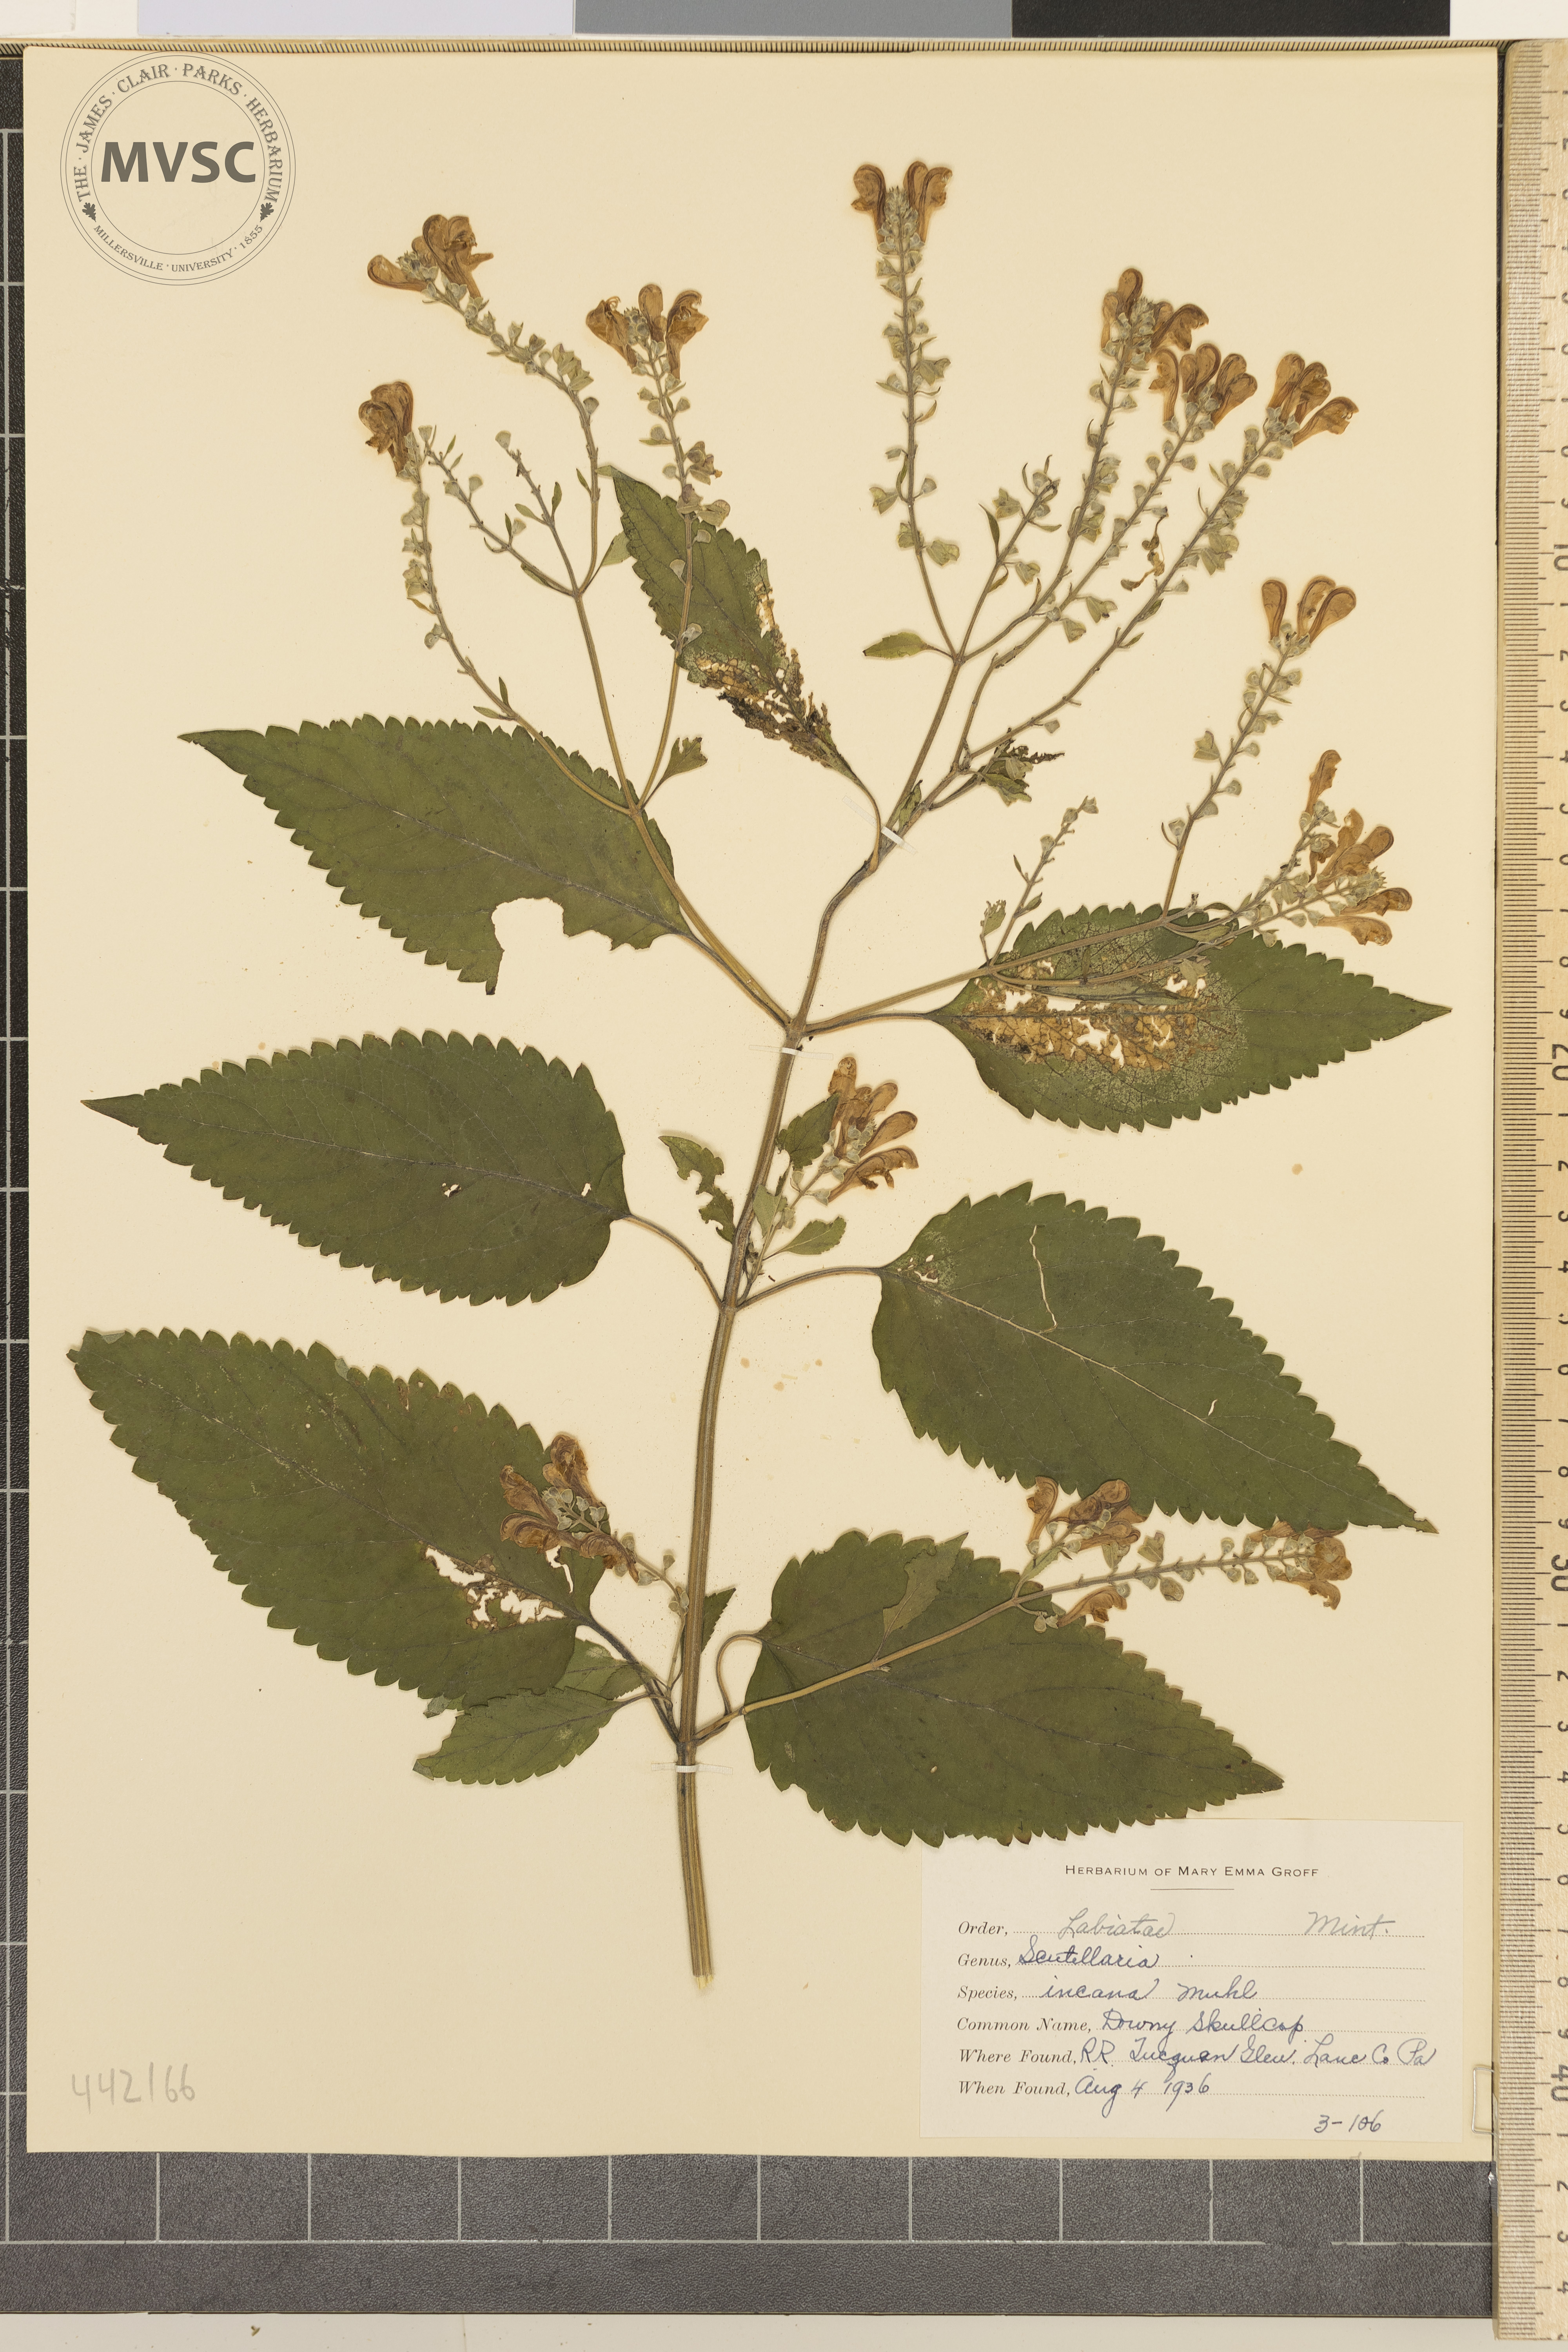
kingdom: Plantae
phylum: Tracheophyta
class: Magnoliopsida
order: Lamiales
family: Lamiaceae
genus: Scutellaria
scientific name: Scutellaria incana
